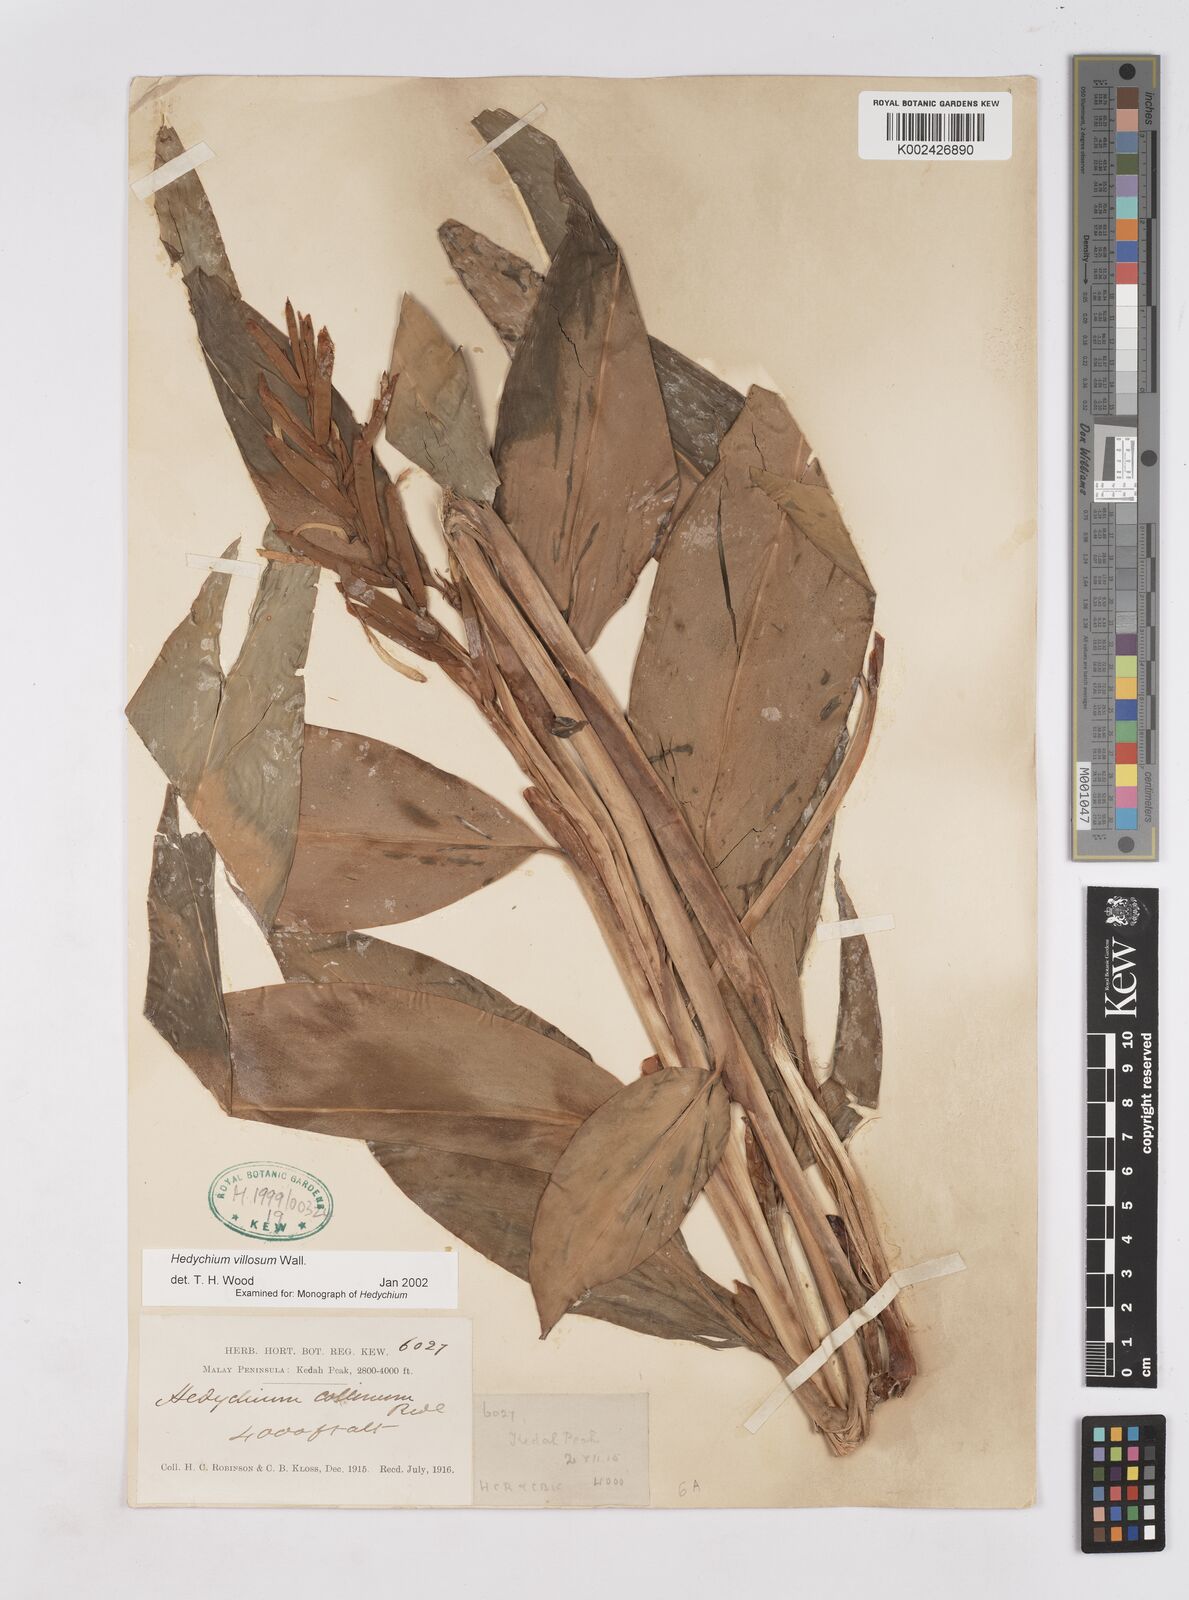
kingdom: Plantae
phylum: Tracheophyta
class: Liliopsida
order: Zingiberales
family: Zingiberaceae
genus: Hedychium
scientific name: Hedychium villosum
